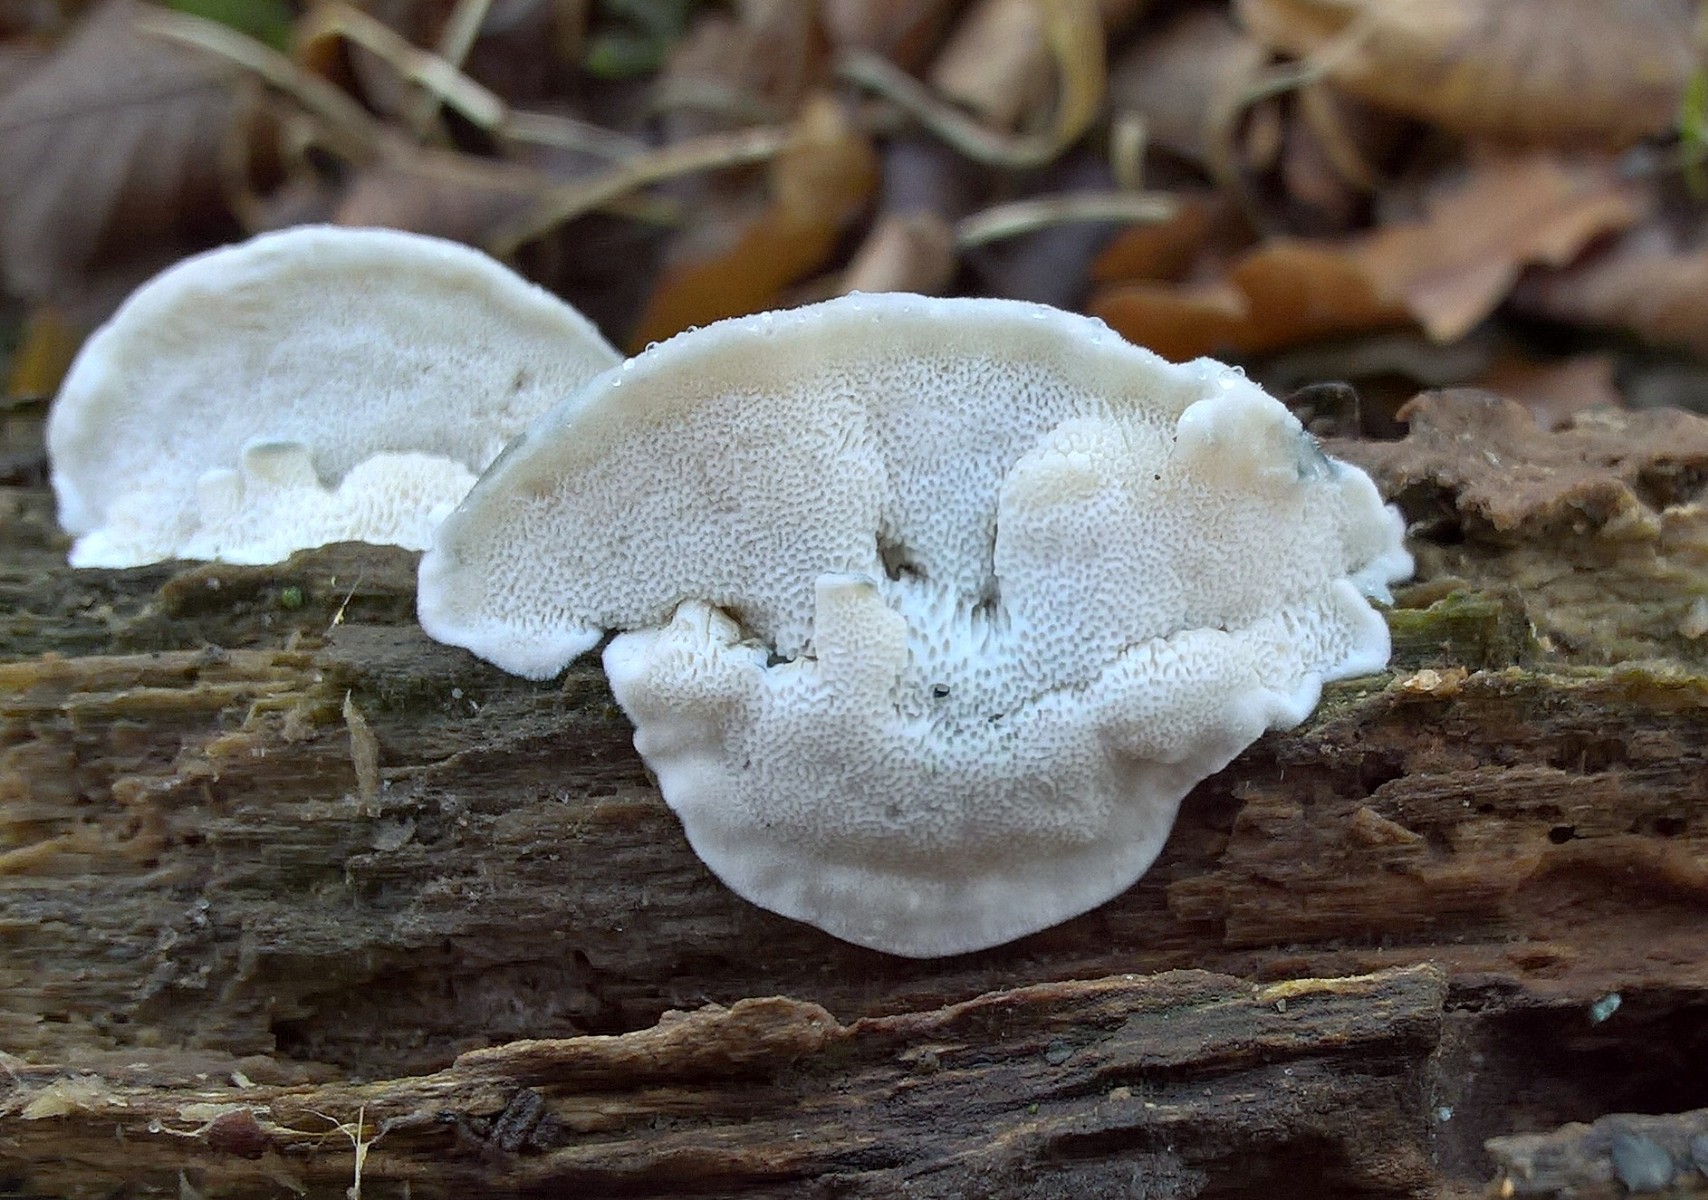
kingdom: Fungi
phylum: Basidiomycota
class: Agaricomycetes
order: Polyporales
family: Polyporaceae
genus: Cyanosporus
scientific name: Cyanosporus alni
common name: blegblå kødporesvamp
